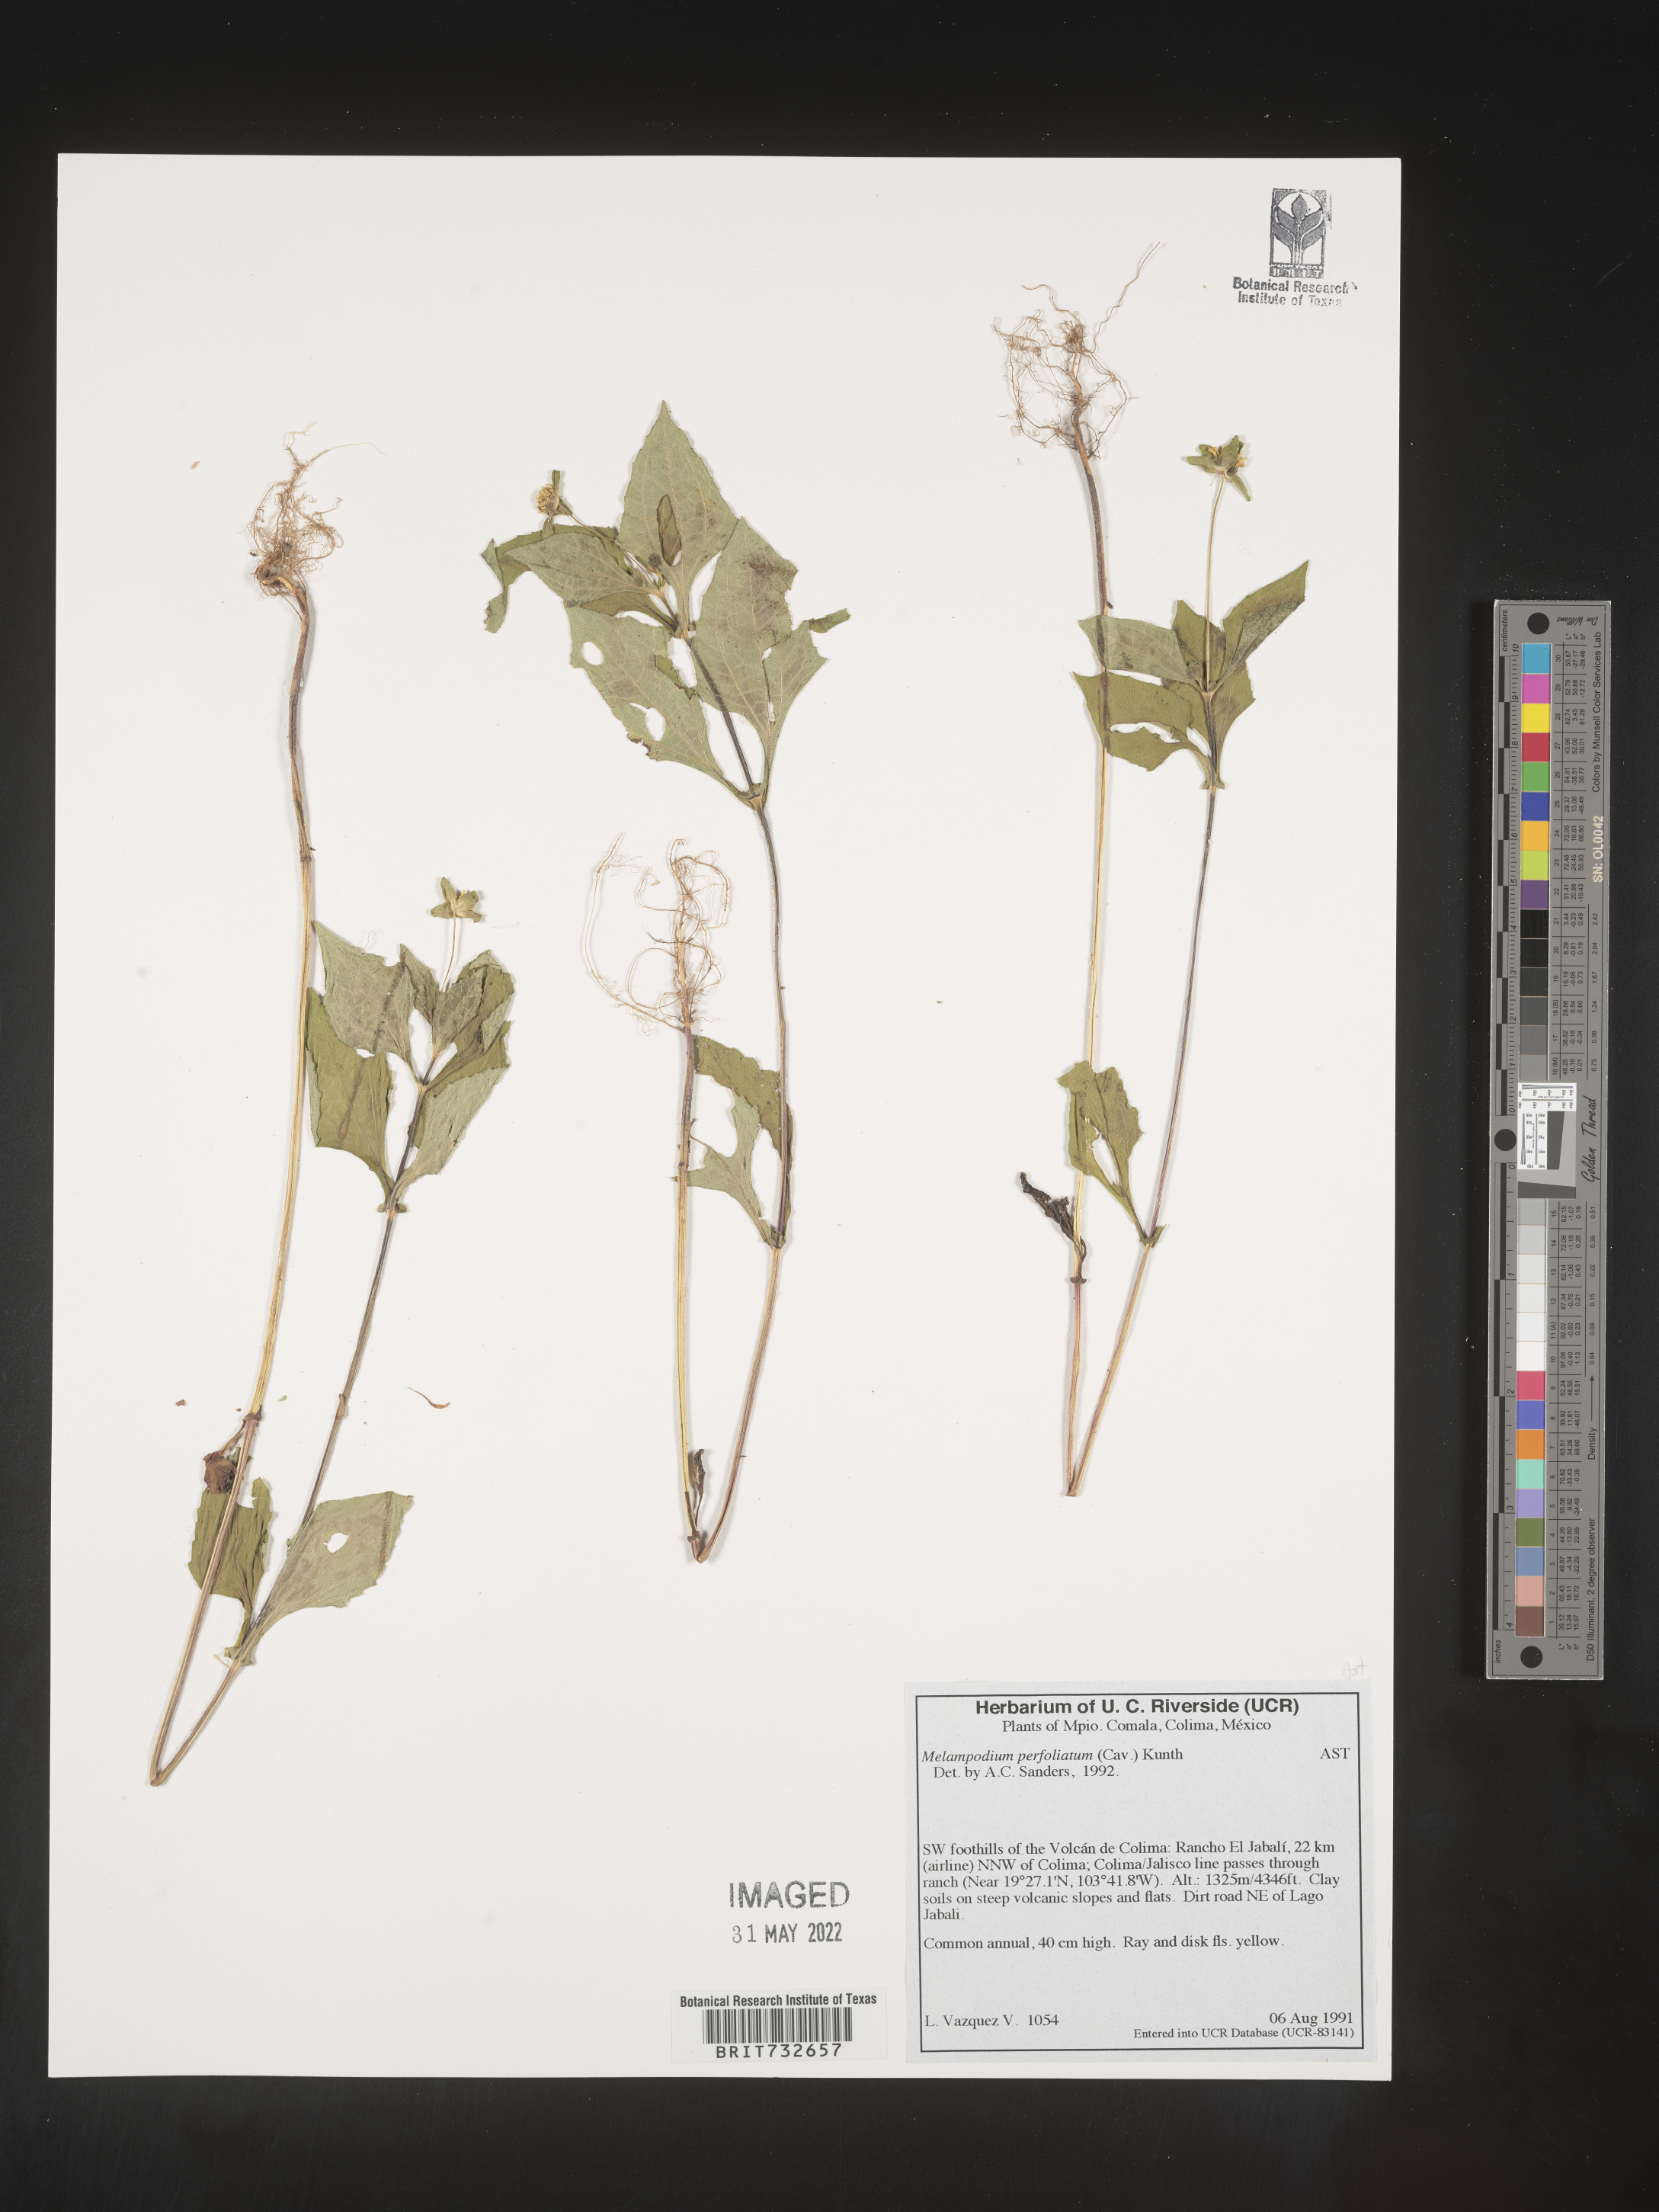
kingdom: Plantae
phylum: Tracheophyta
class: Magnoliopsida
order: Asterales
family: Asteraceae
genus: Melampodium
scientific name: Melampodium
